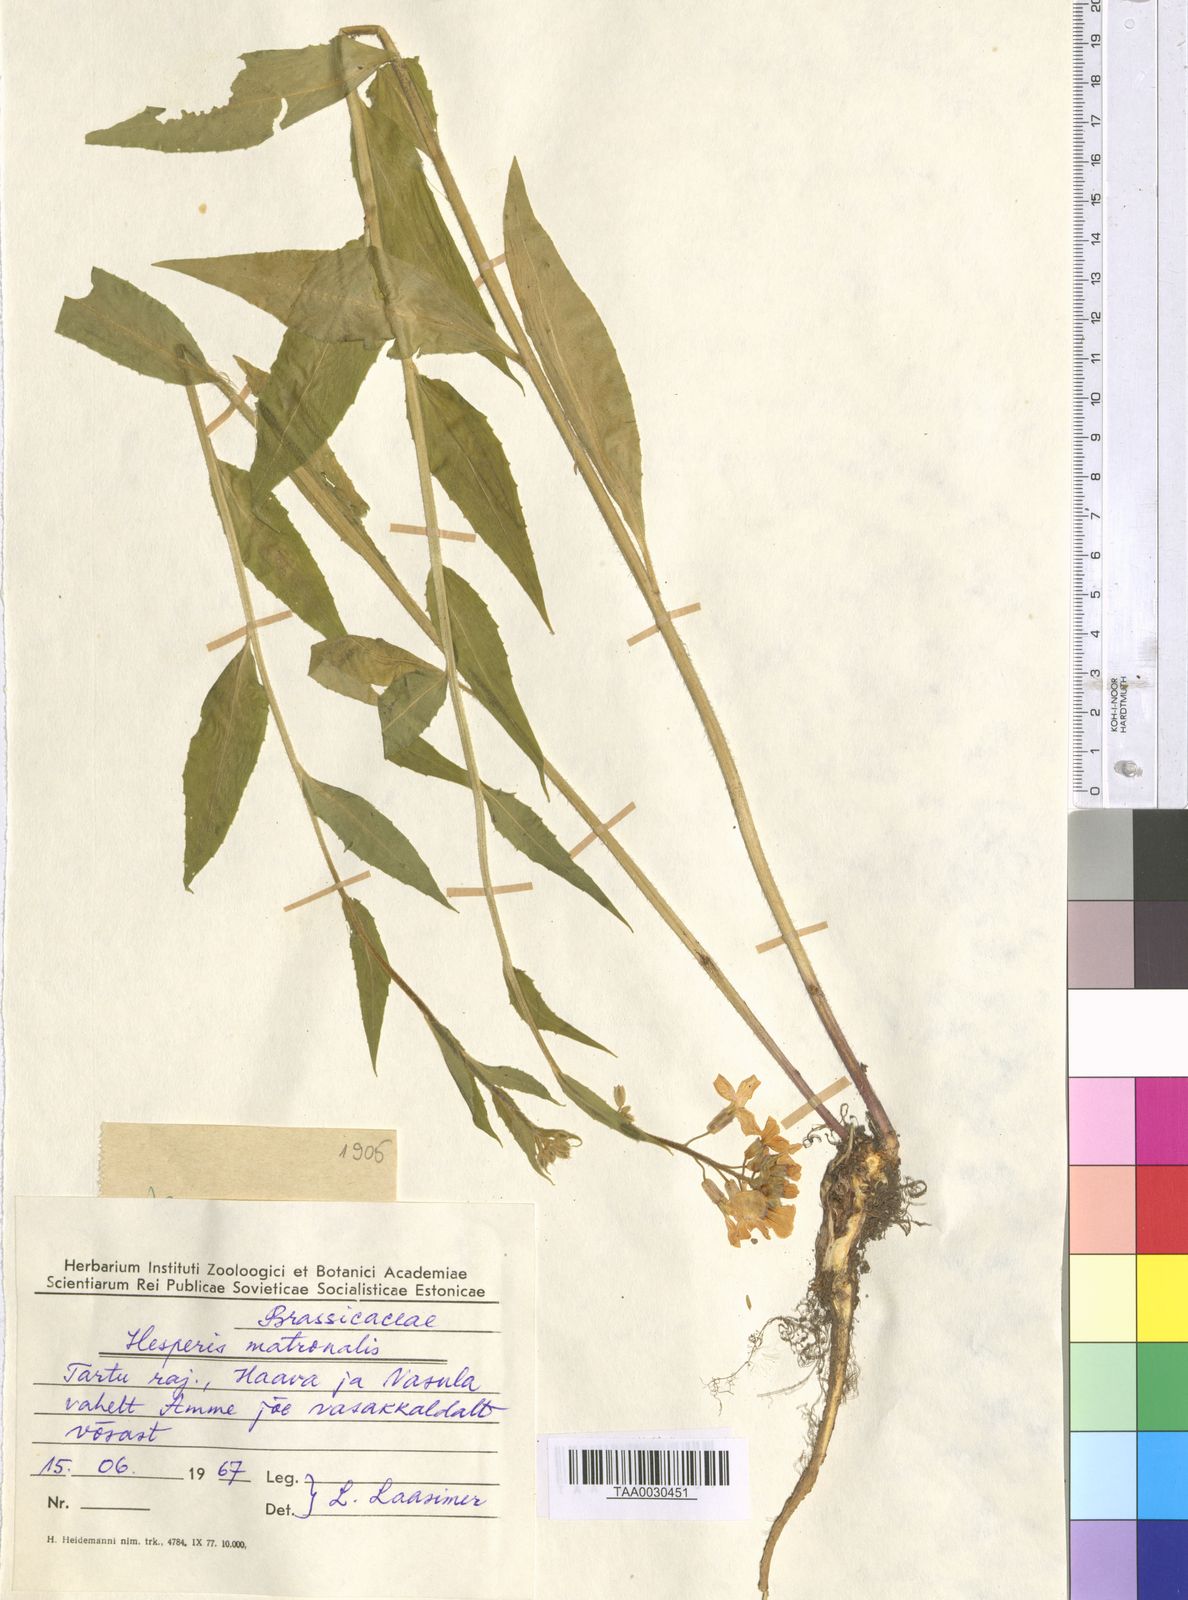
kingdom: Plantae
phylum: Tracheophyta
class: Magnoliopsida
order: Brassicales
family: Brassicaceae
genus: Hesperis
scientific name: Hesperis matronalis
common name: Dame's-violet
